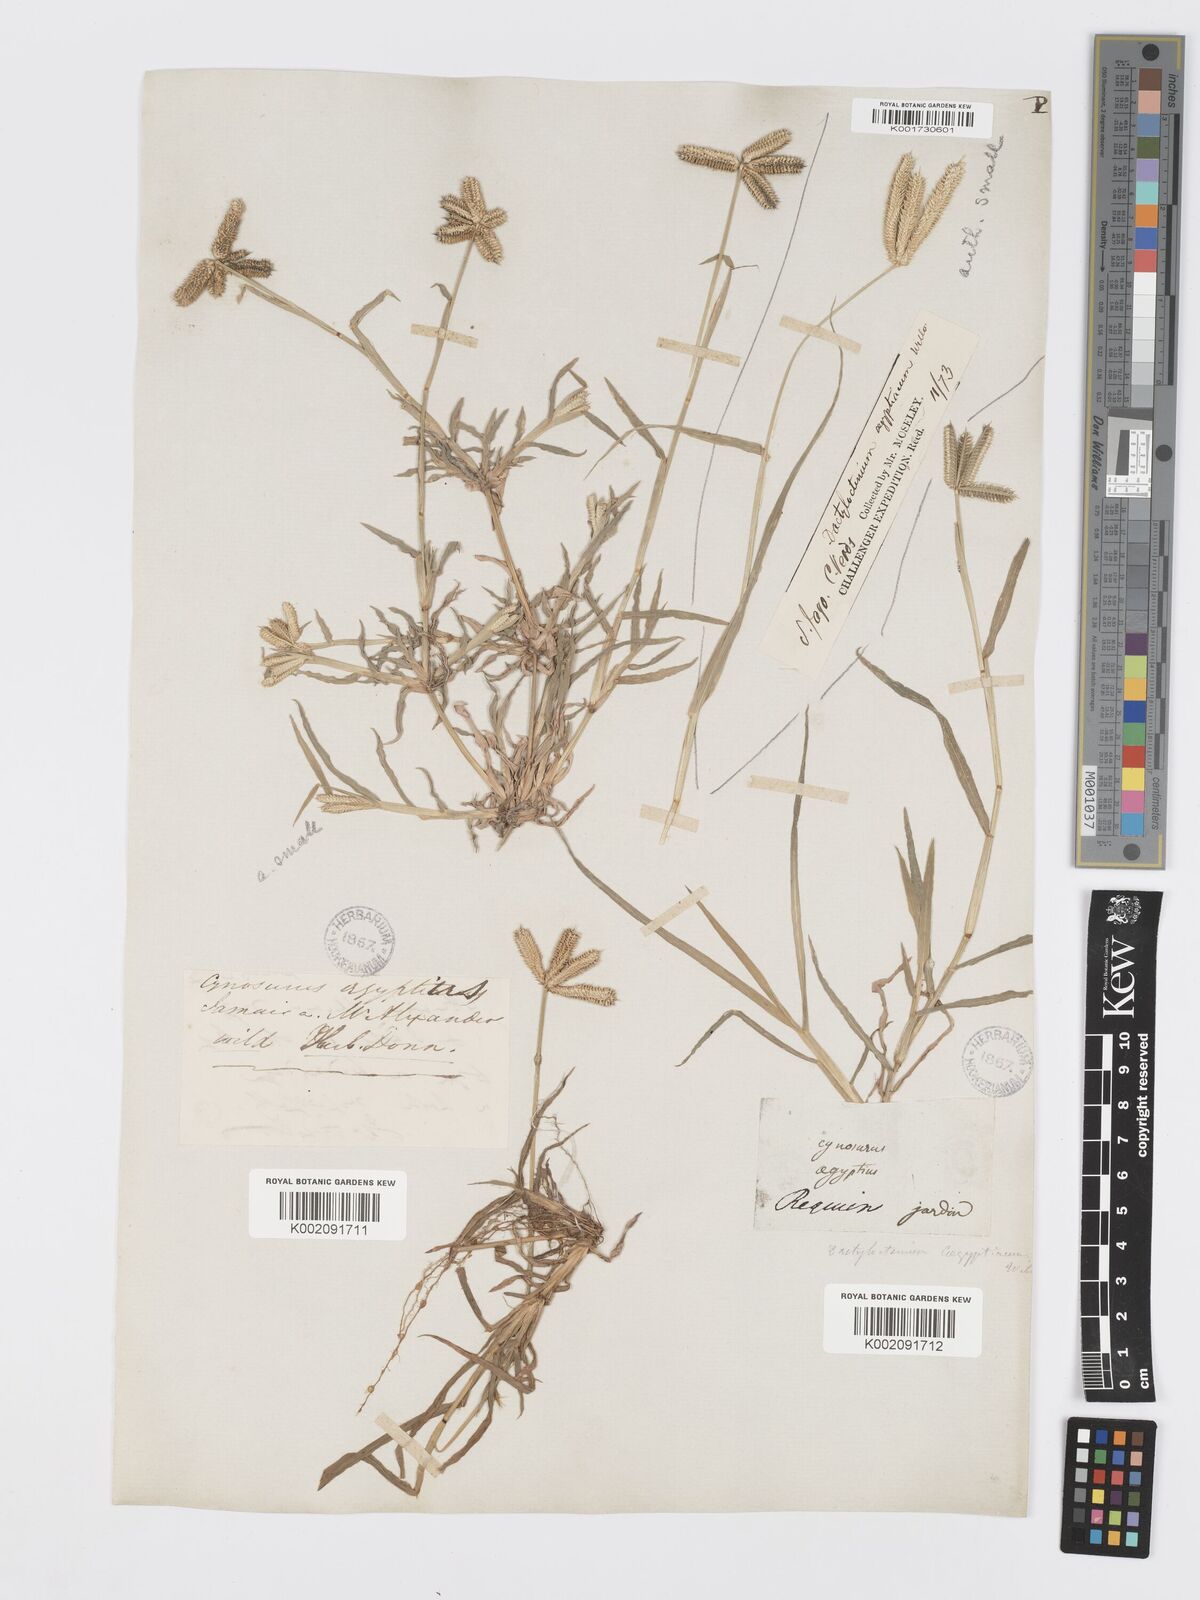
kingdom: Plantae
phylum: Tracheophyta
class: Liliopsida
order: Poales
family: Poaceae
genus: Dactyloctenium
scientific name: Dactyloctenium aegyptium
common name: Egyptian grass
